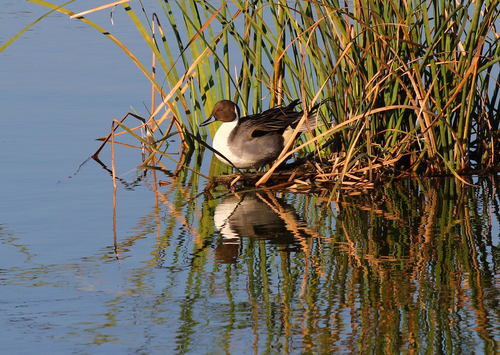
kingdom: Animalia
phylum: Chordata
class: Aves
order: Anseriformes
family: Anatidae
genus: Anas
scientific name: Anas acuta
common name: Northern pintail
